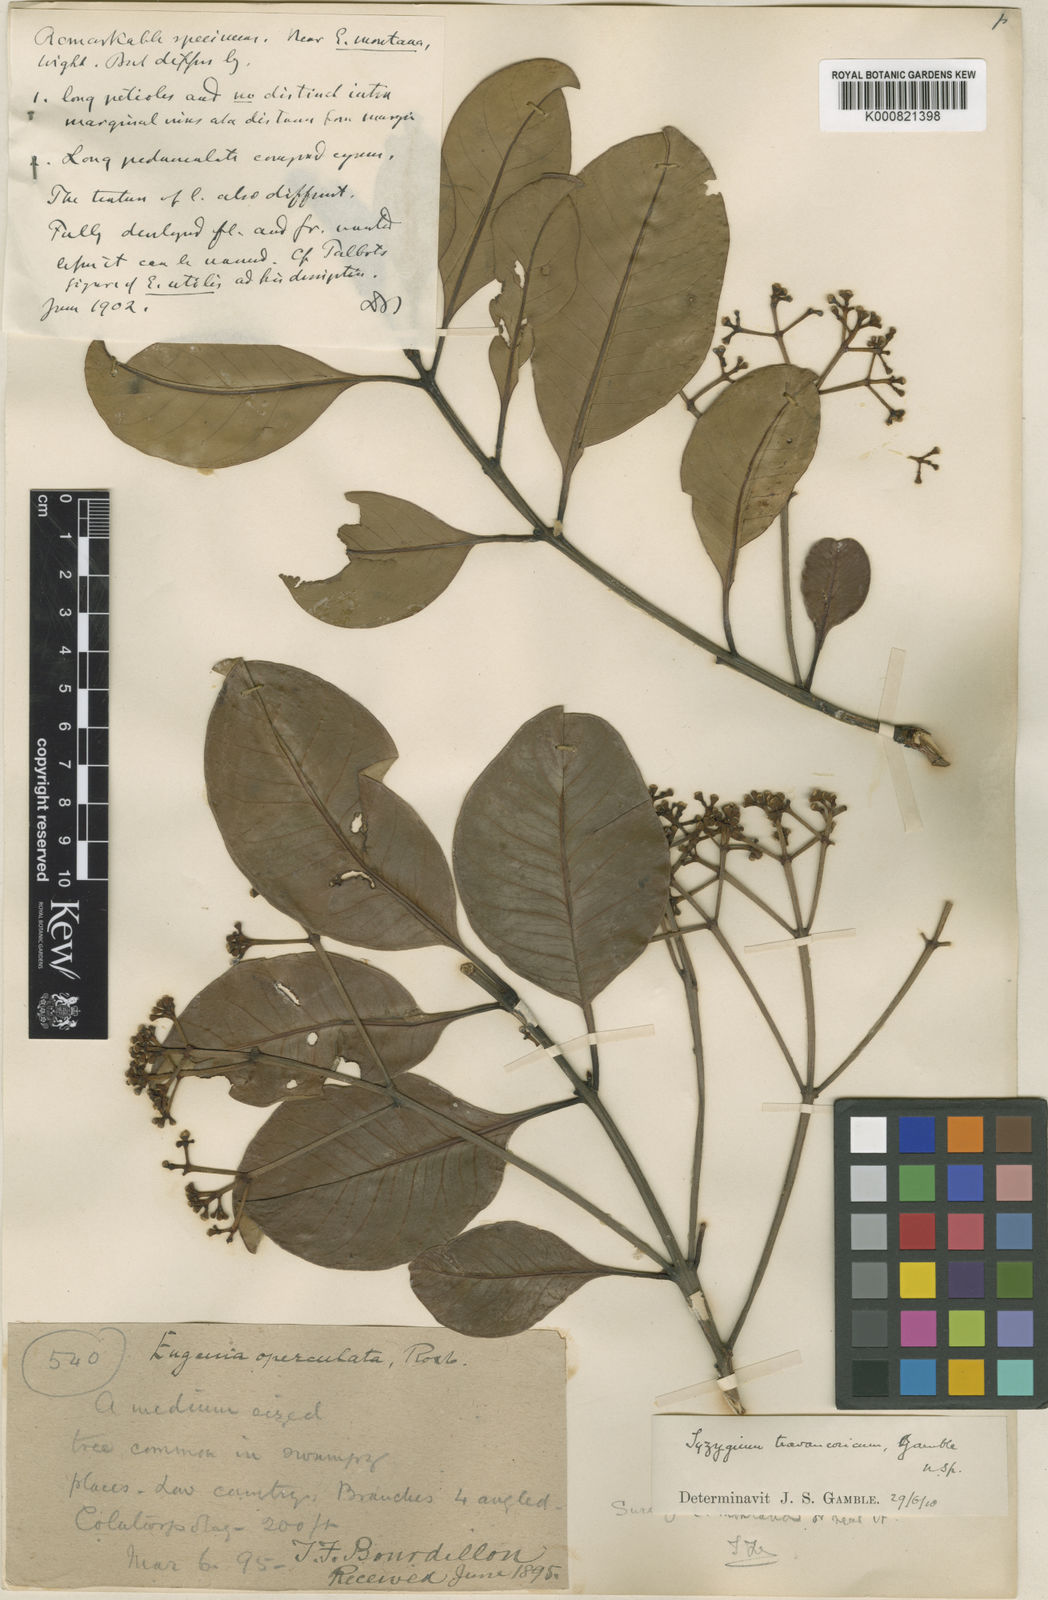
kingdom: Plantae
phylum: Tracheophyta
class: Magnoliopsida
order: Myrtales
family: Myrtaceae
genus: Syzygium
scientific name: Syzygium travancoricum
